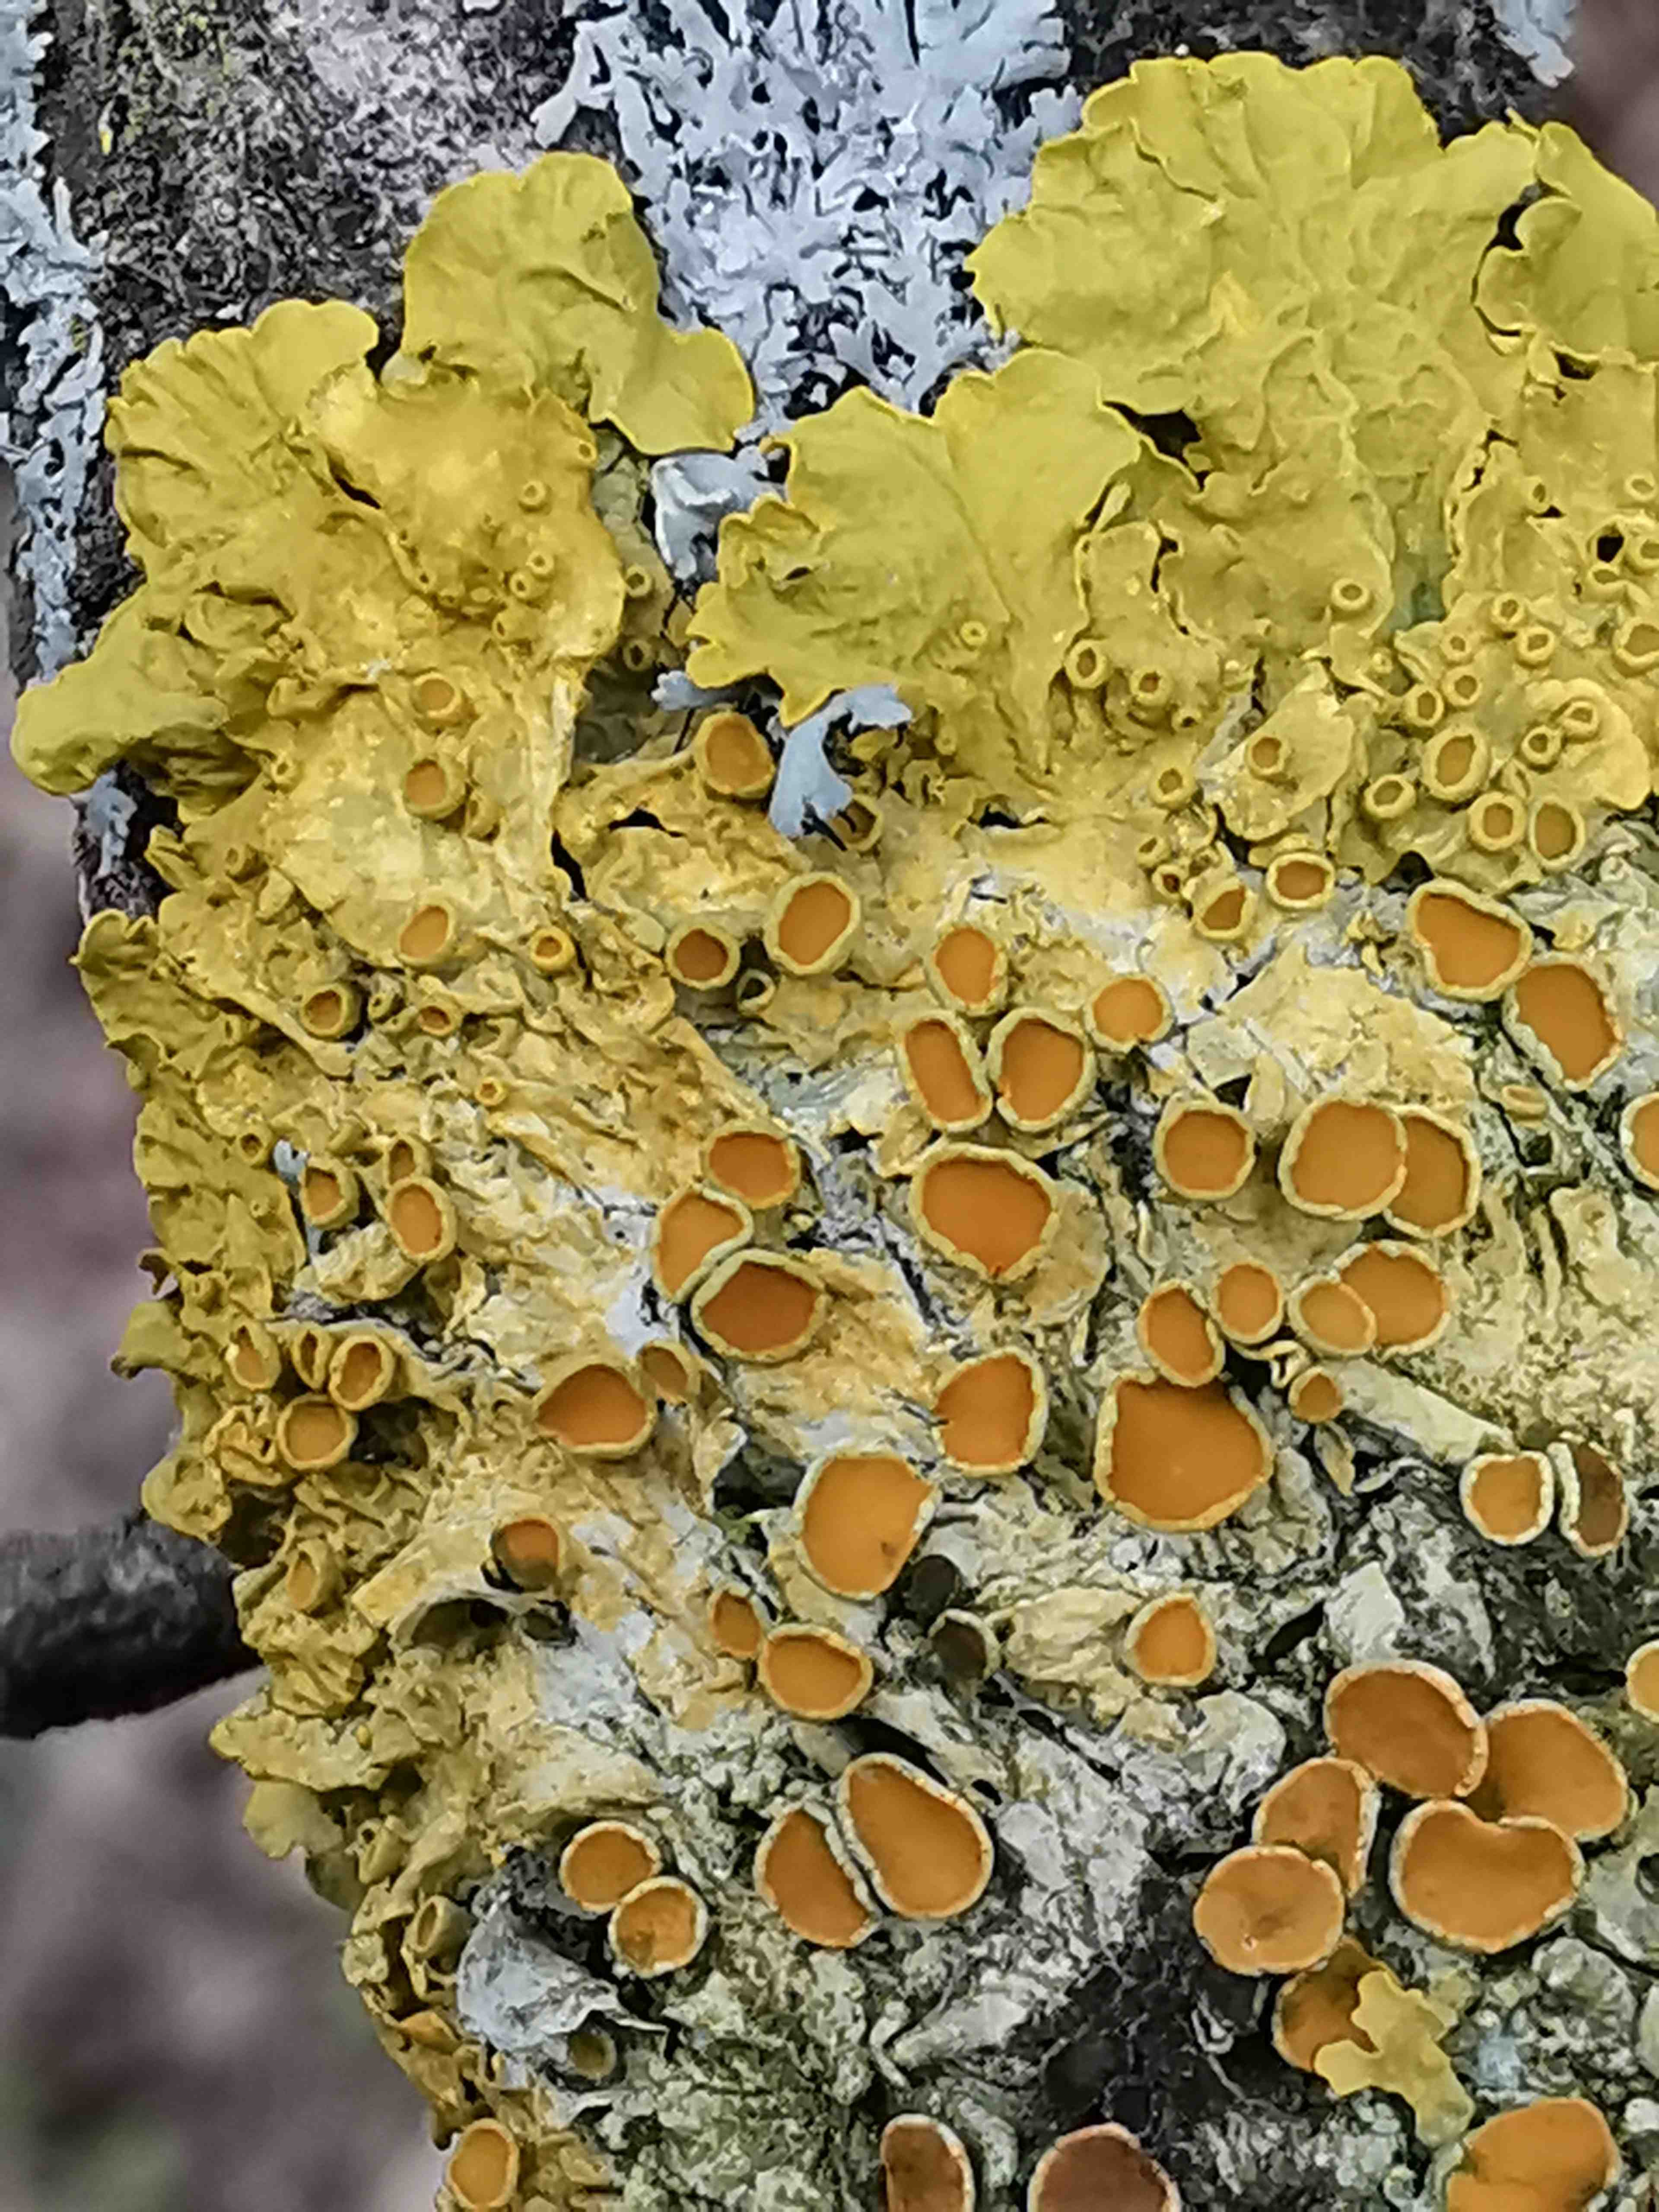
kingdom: Fungi
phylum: Ascomycota
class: Lecanoromycetes
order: Teloschistales
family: Teloschistaceae
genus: Xanthoria
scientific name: Xanthoria parietina
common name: almindelig væggelav
